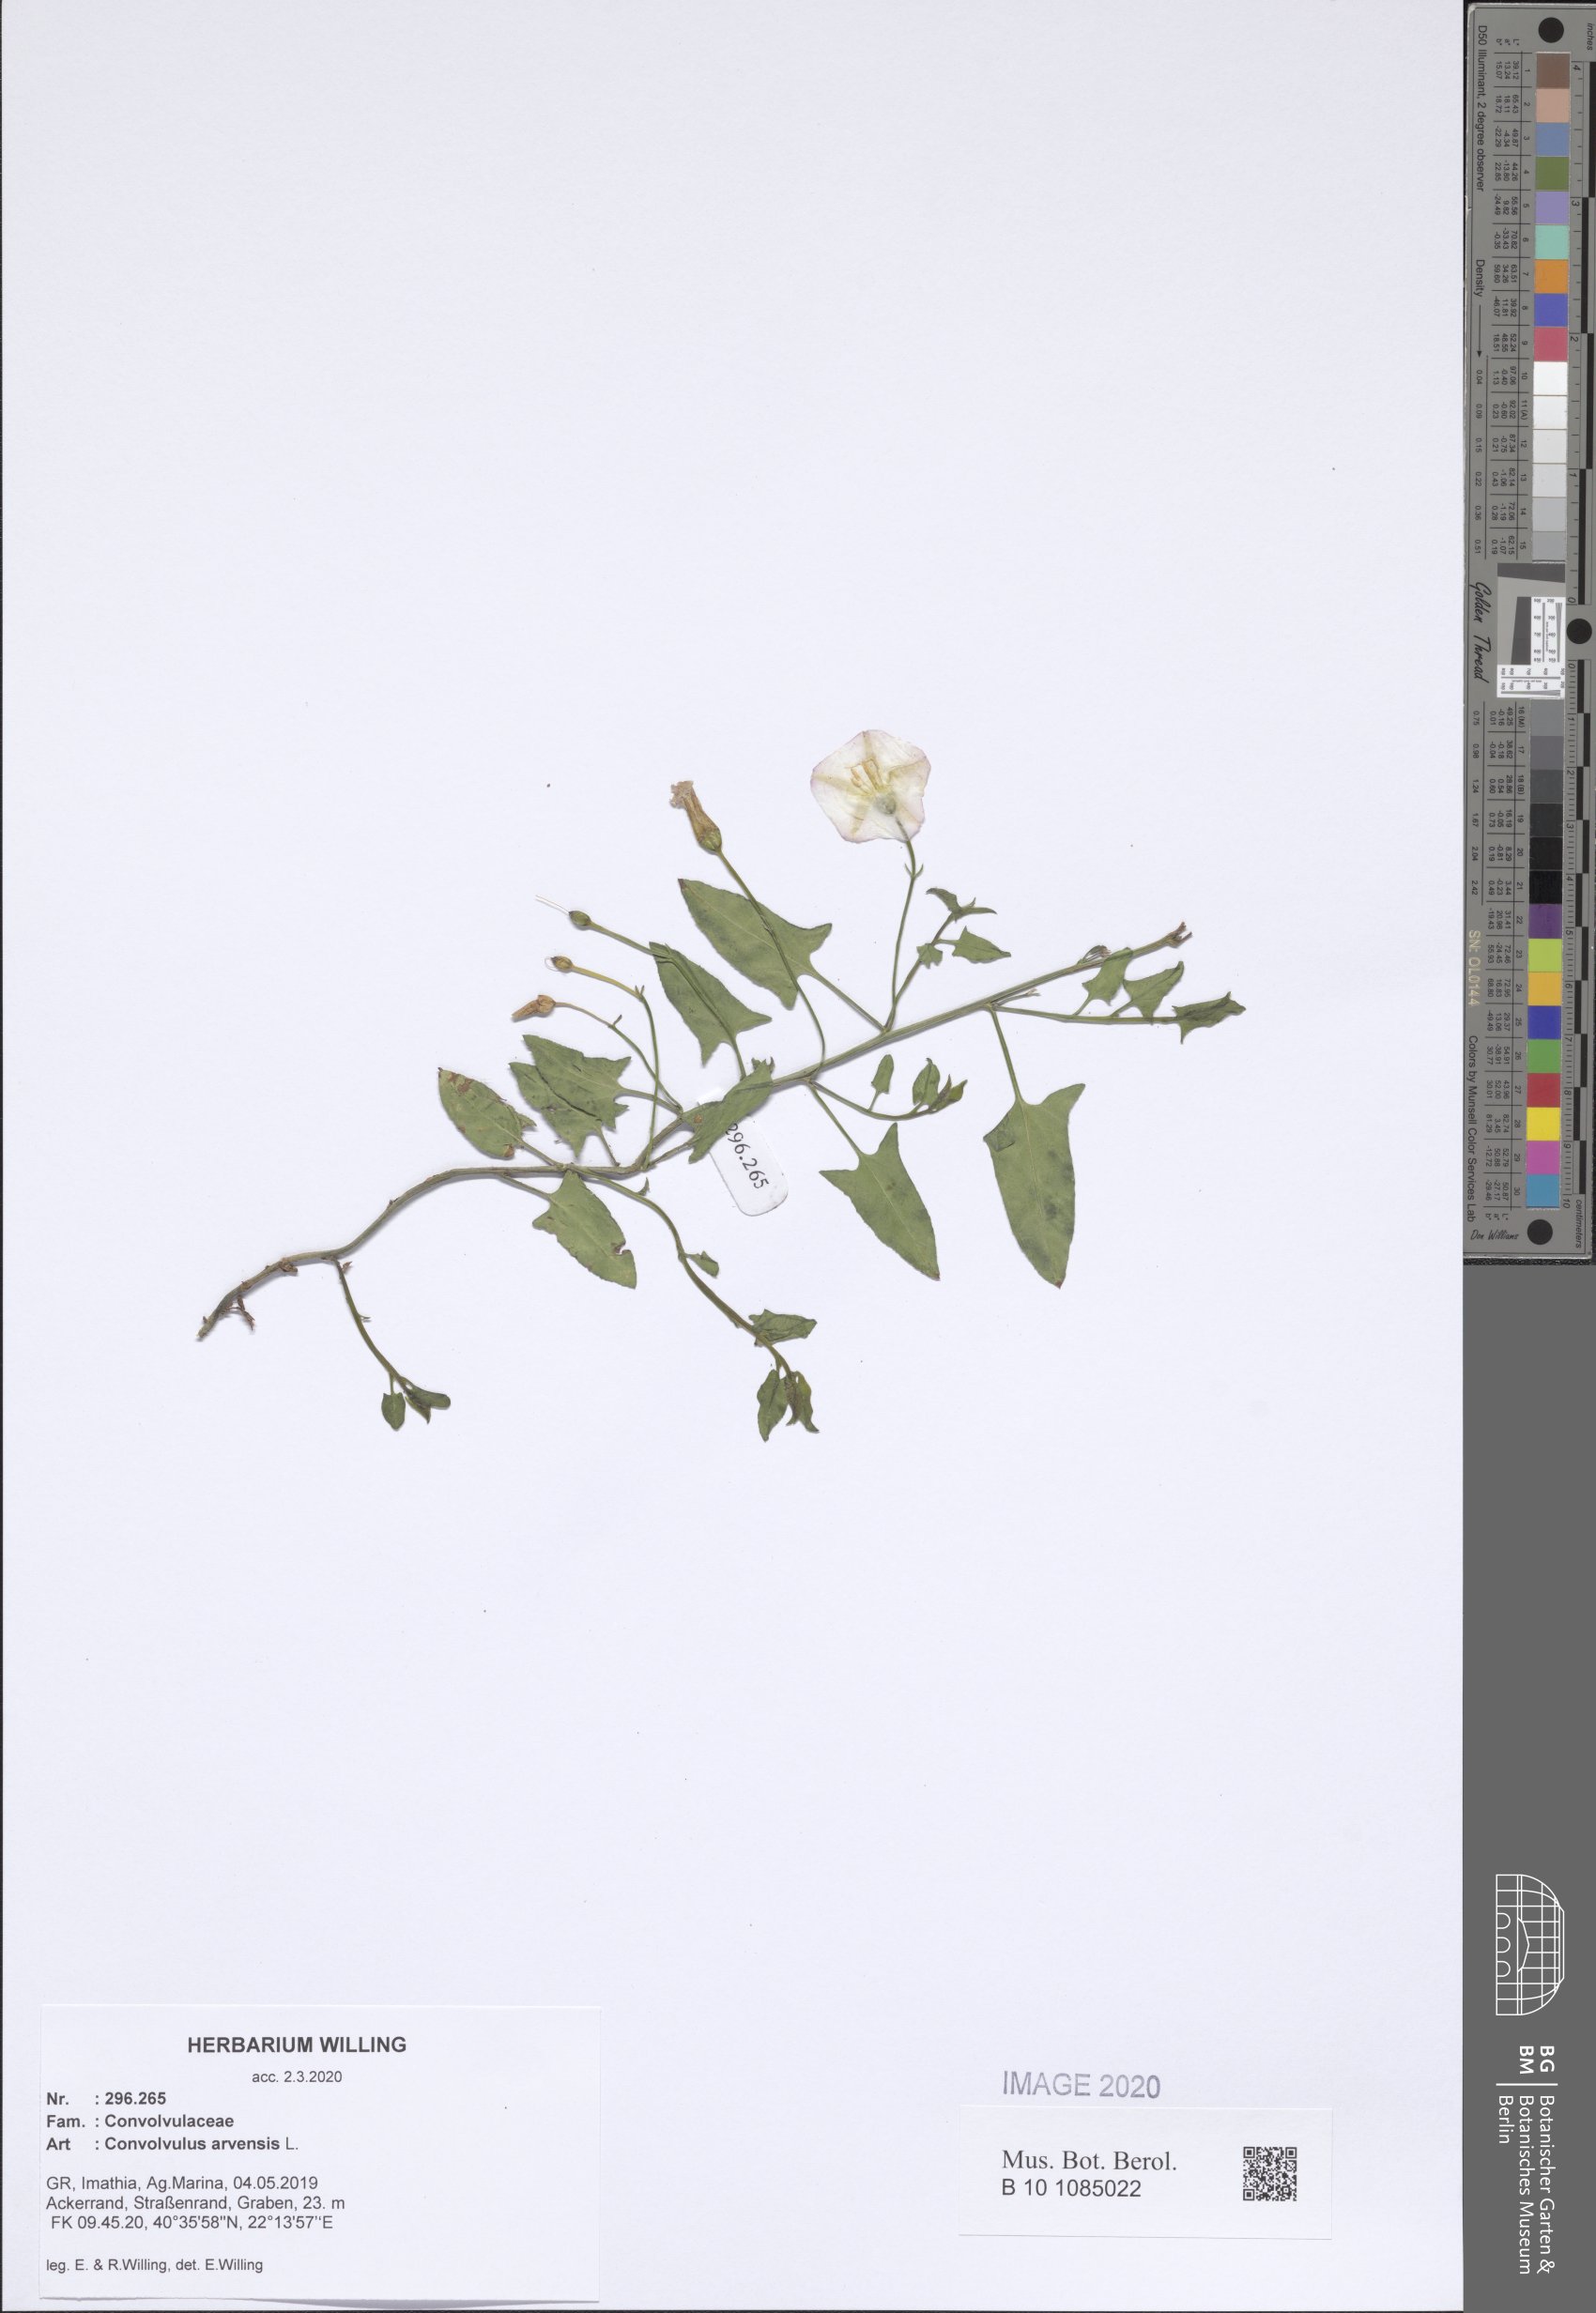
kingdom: Plantae
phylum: Tracheophyta
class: Magnoliopsida
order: Solanales
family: Convolvulaceae
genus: Convolvulus
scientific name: Convolvulus arvensis
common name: Field bindweed
